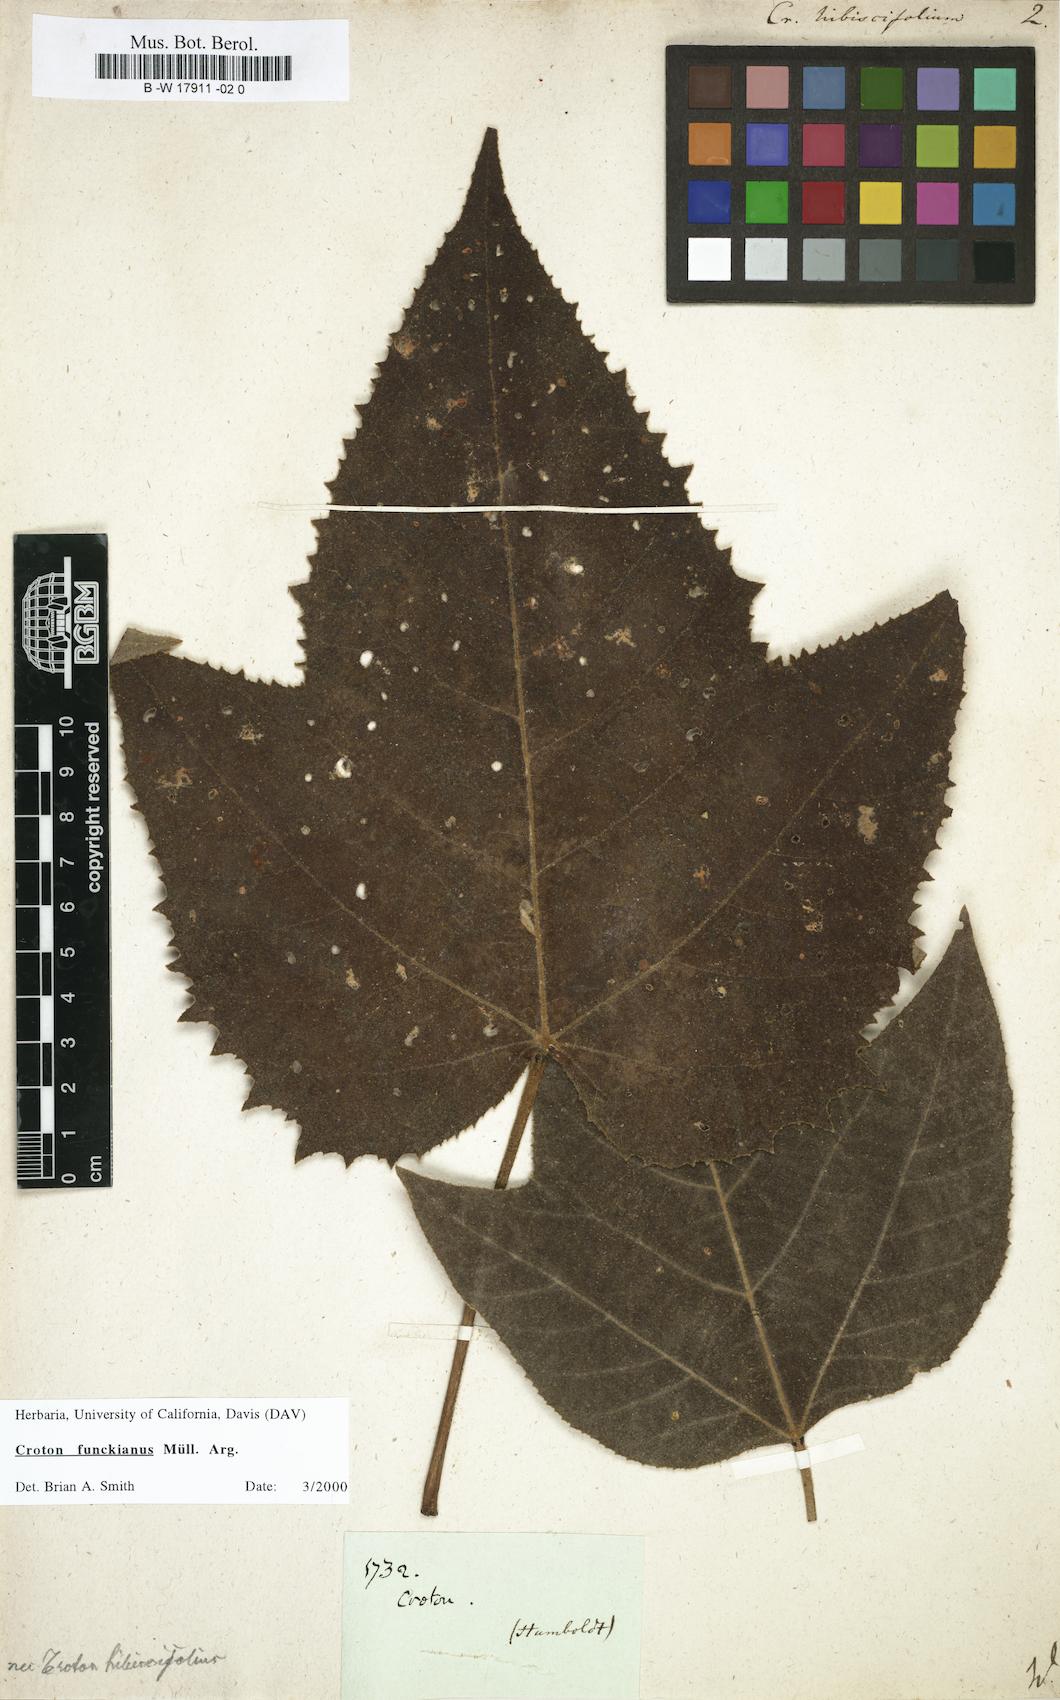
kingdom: Plantae
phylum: Tracheophyta
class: Magnoliopsida
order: Malpighiales
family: Euphorbiaceae
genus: Croton
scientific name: Croton hibiscifolius
